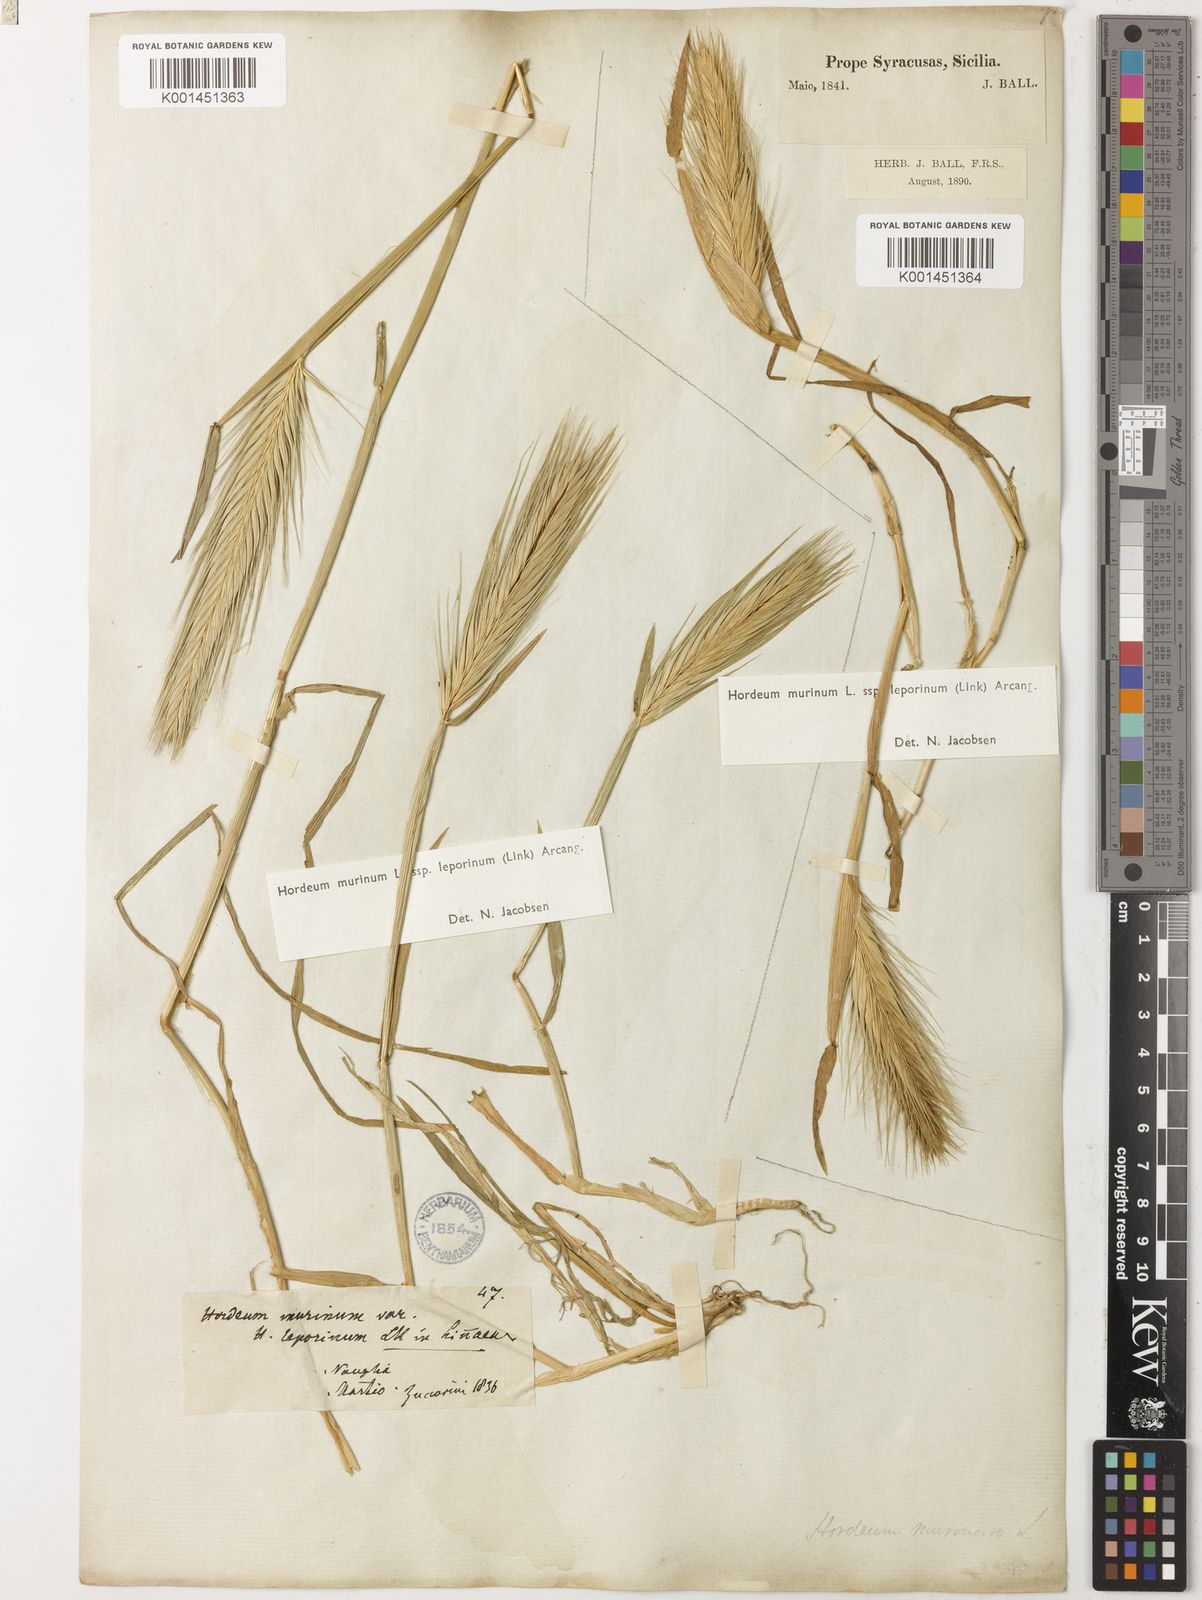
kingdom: Plantae
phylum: Tracheophyta
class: Liliopsida
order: Poales
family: Poaceae
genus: Hordeum
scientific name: Hordeum murinum
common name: Wall barley
